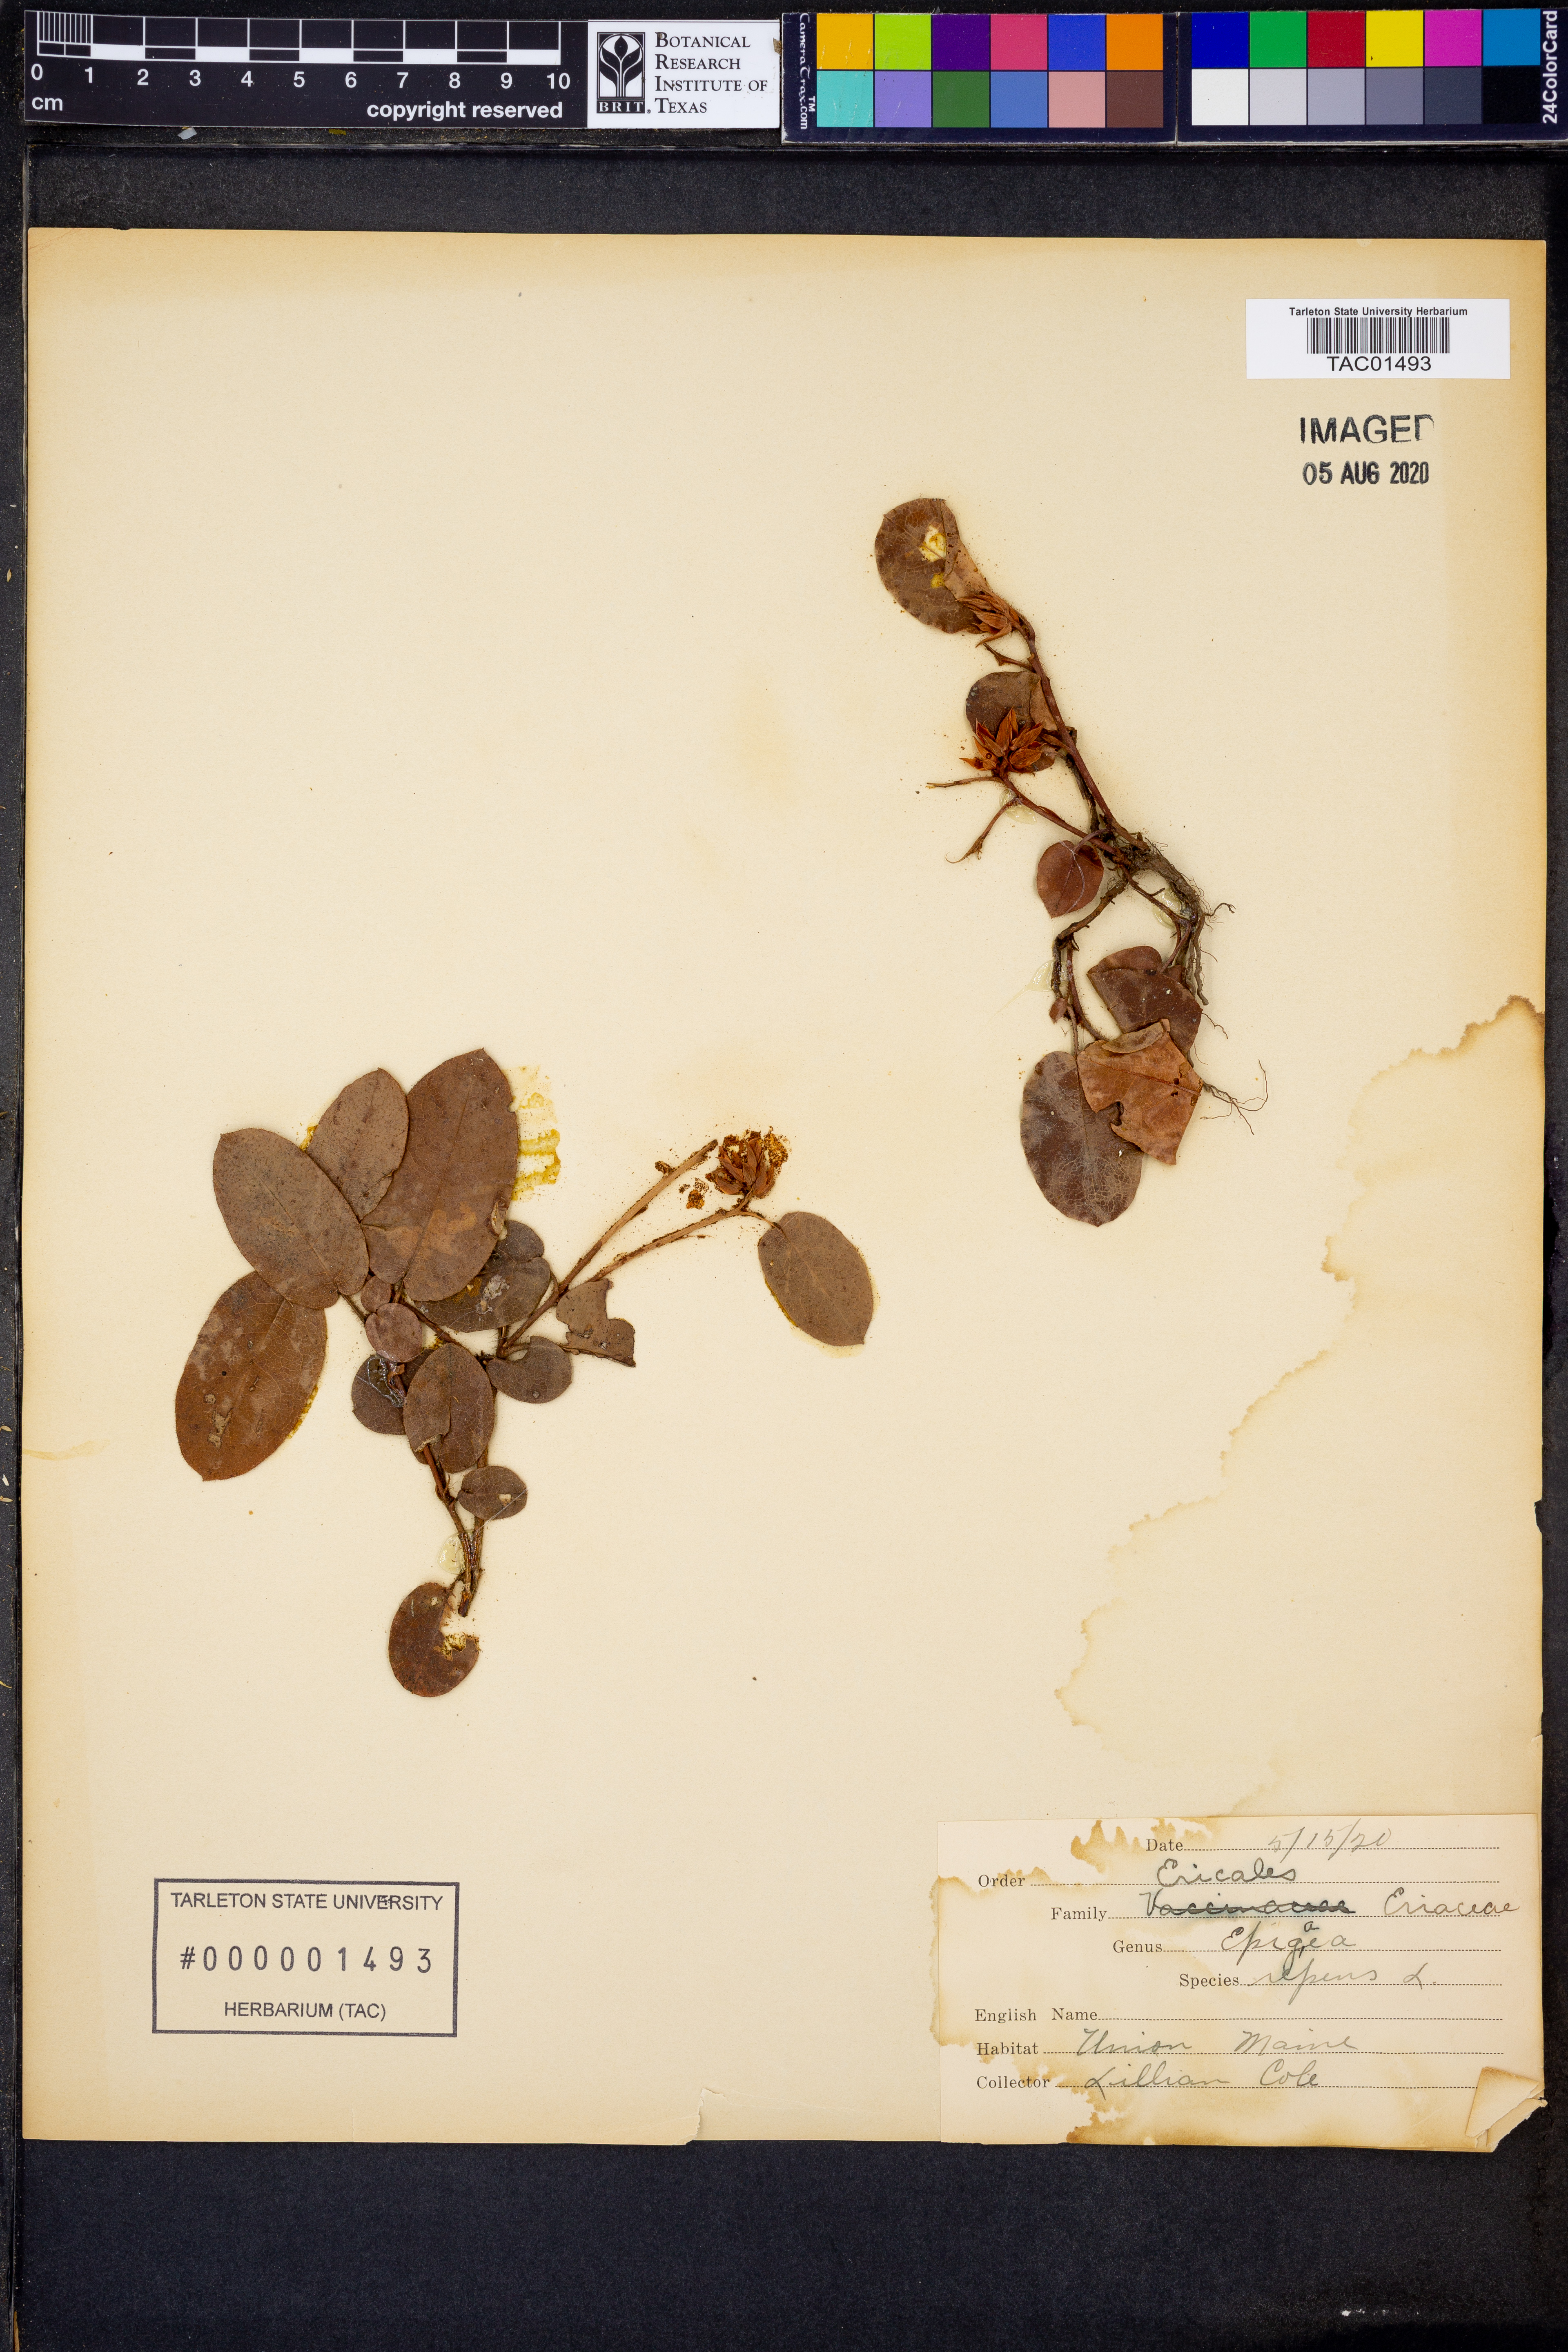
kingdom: Plantae
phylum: Tracheophyta
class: Magnoliopsida
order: Ericales
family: Ericaceae
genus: Epigaea
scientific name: Epigaea repens
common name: Gravelroot
